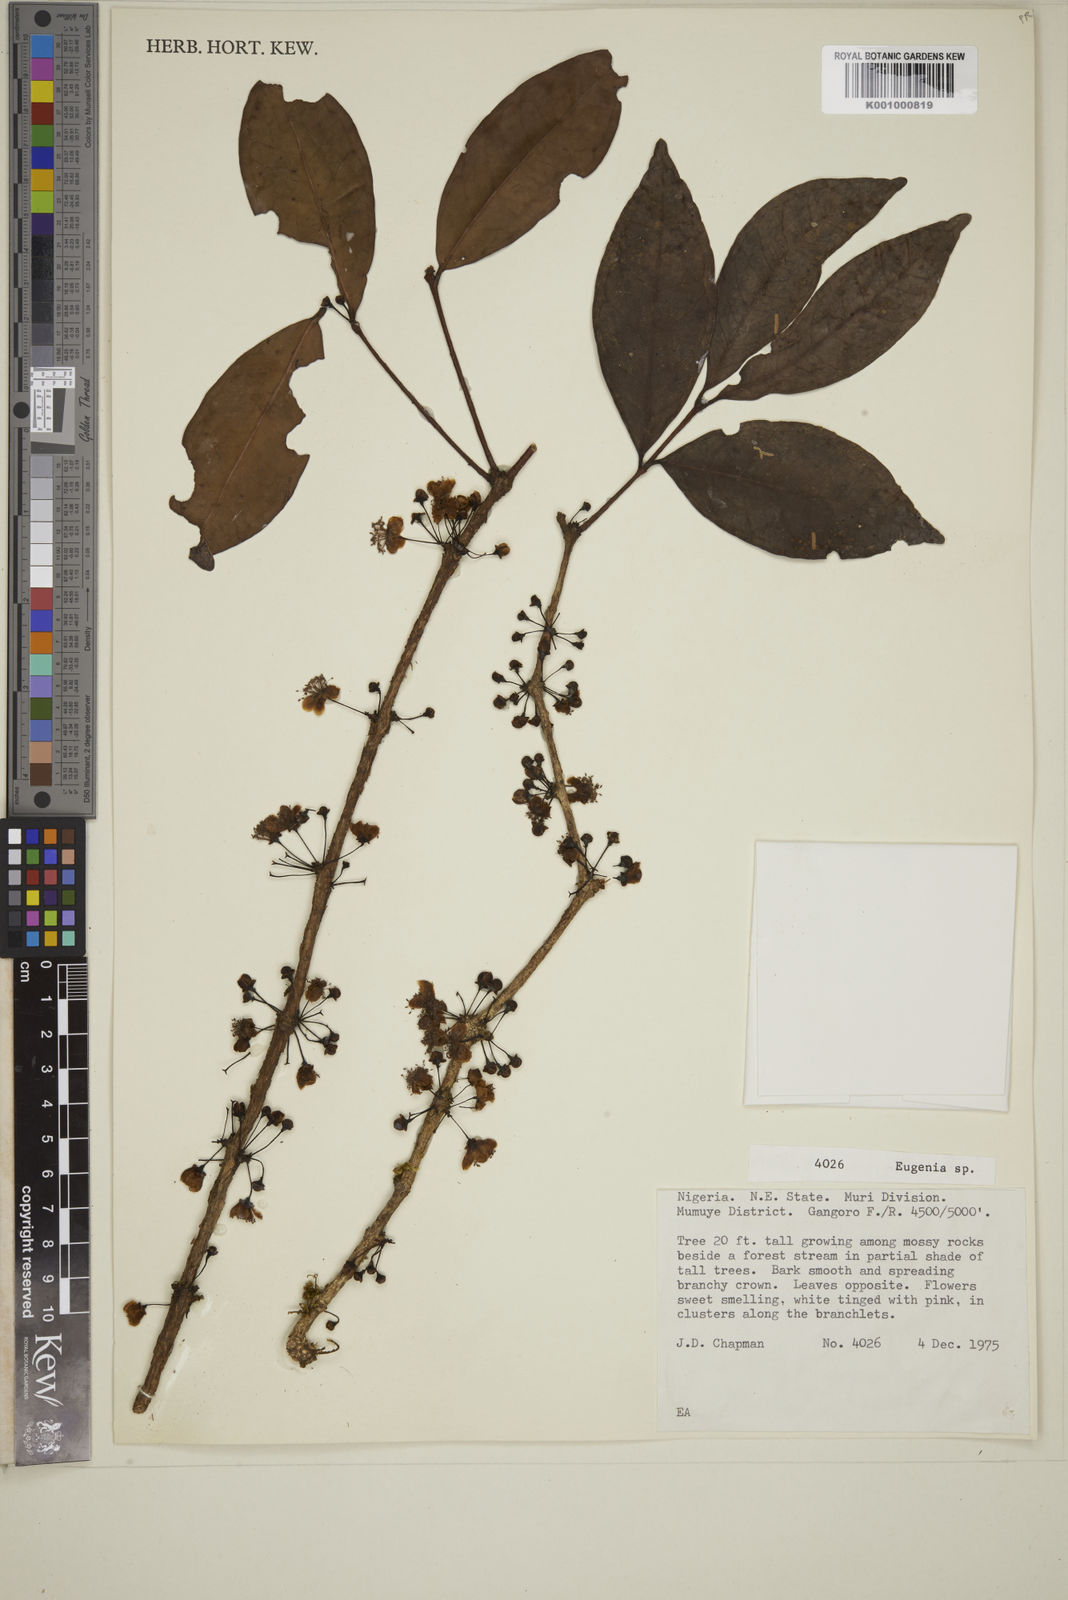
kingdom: Plantae
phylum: Tracheophyta
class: Magnoliopsida
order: Myrtales
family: Myrtaceae
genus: Eugenia
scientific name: Eugenia
